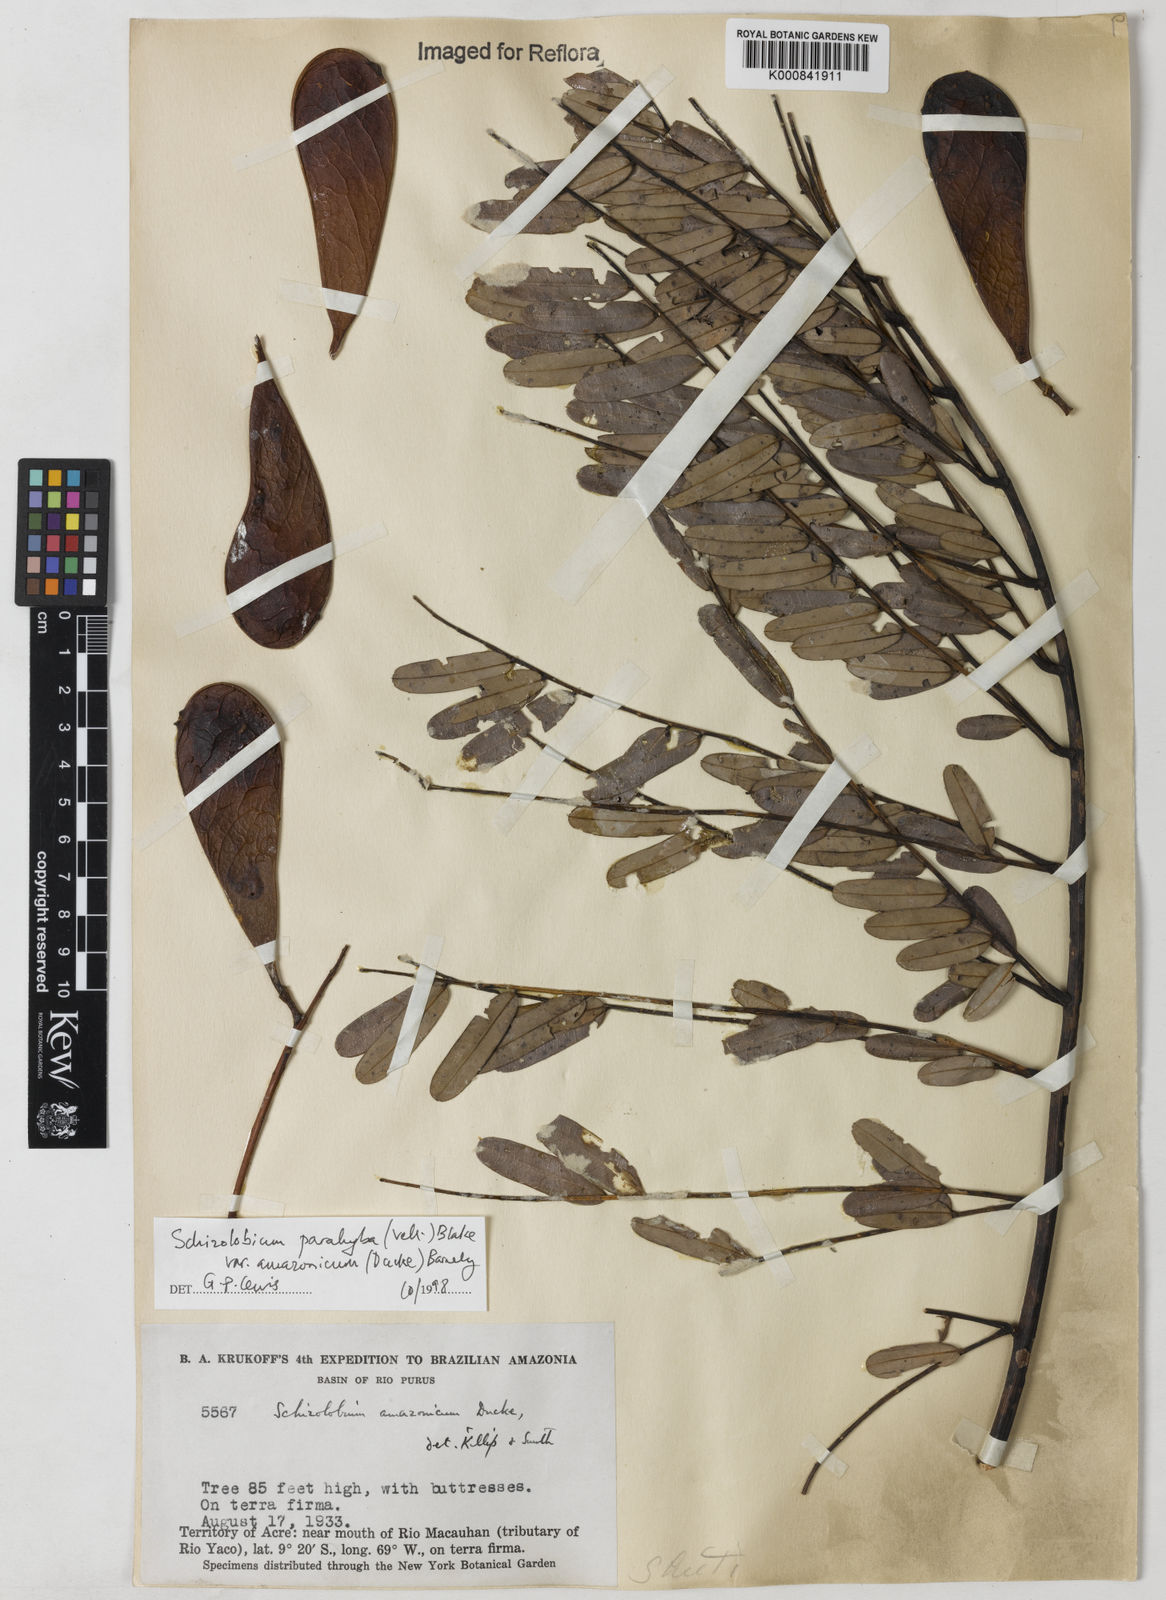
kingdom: Plantae
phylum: Tracheophyta
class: Magnoliopsida
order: Fabales
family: Fabaceae
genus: Schizolobium
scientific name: Schizolobium parahyba
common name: Brazilian firetree
